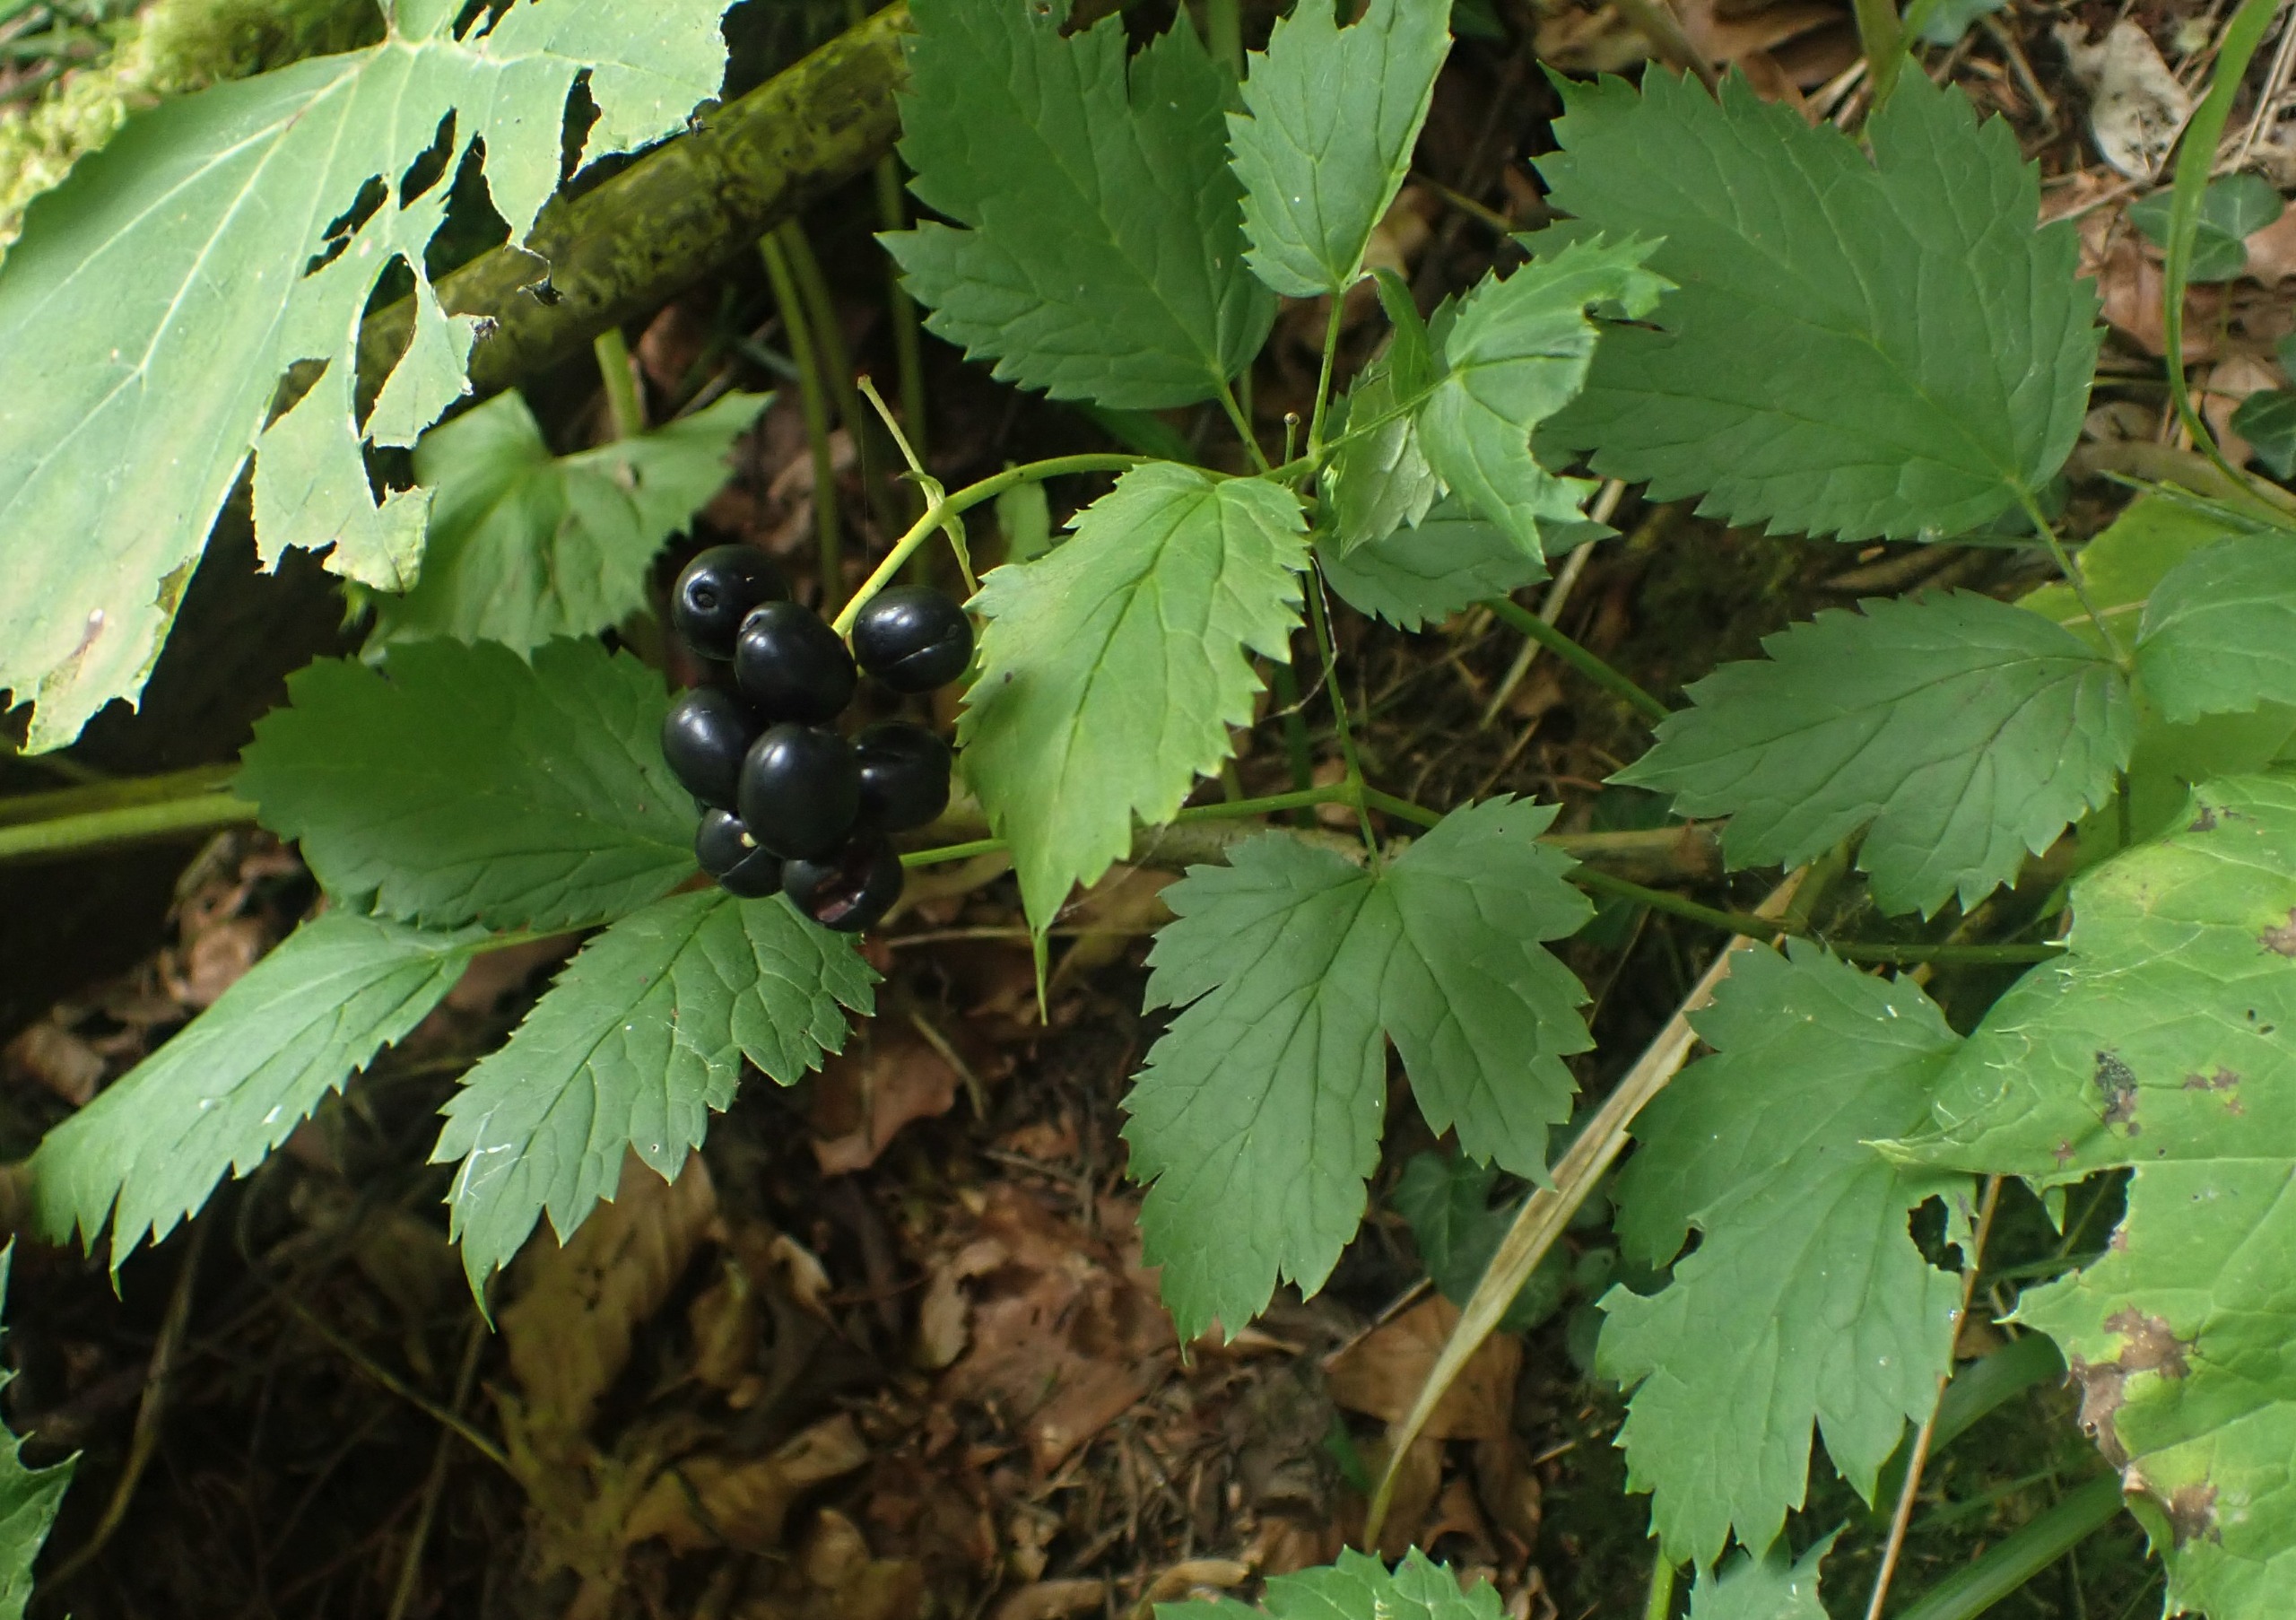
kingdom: Plantae
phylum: Tracheophyta
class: Magnoliopsida
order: Ranunculales
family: Ranunculaceae
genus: Actaea
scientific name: Actaea spicata
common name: Druemunke
